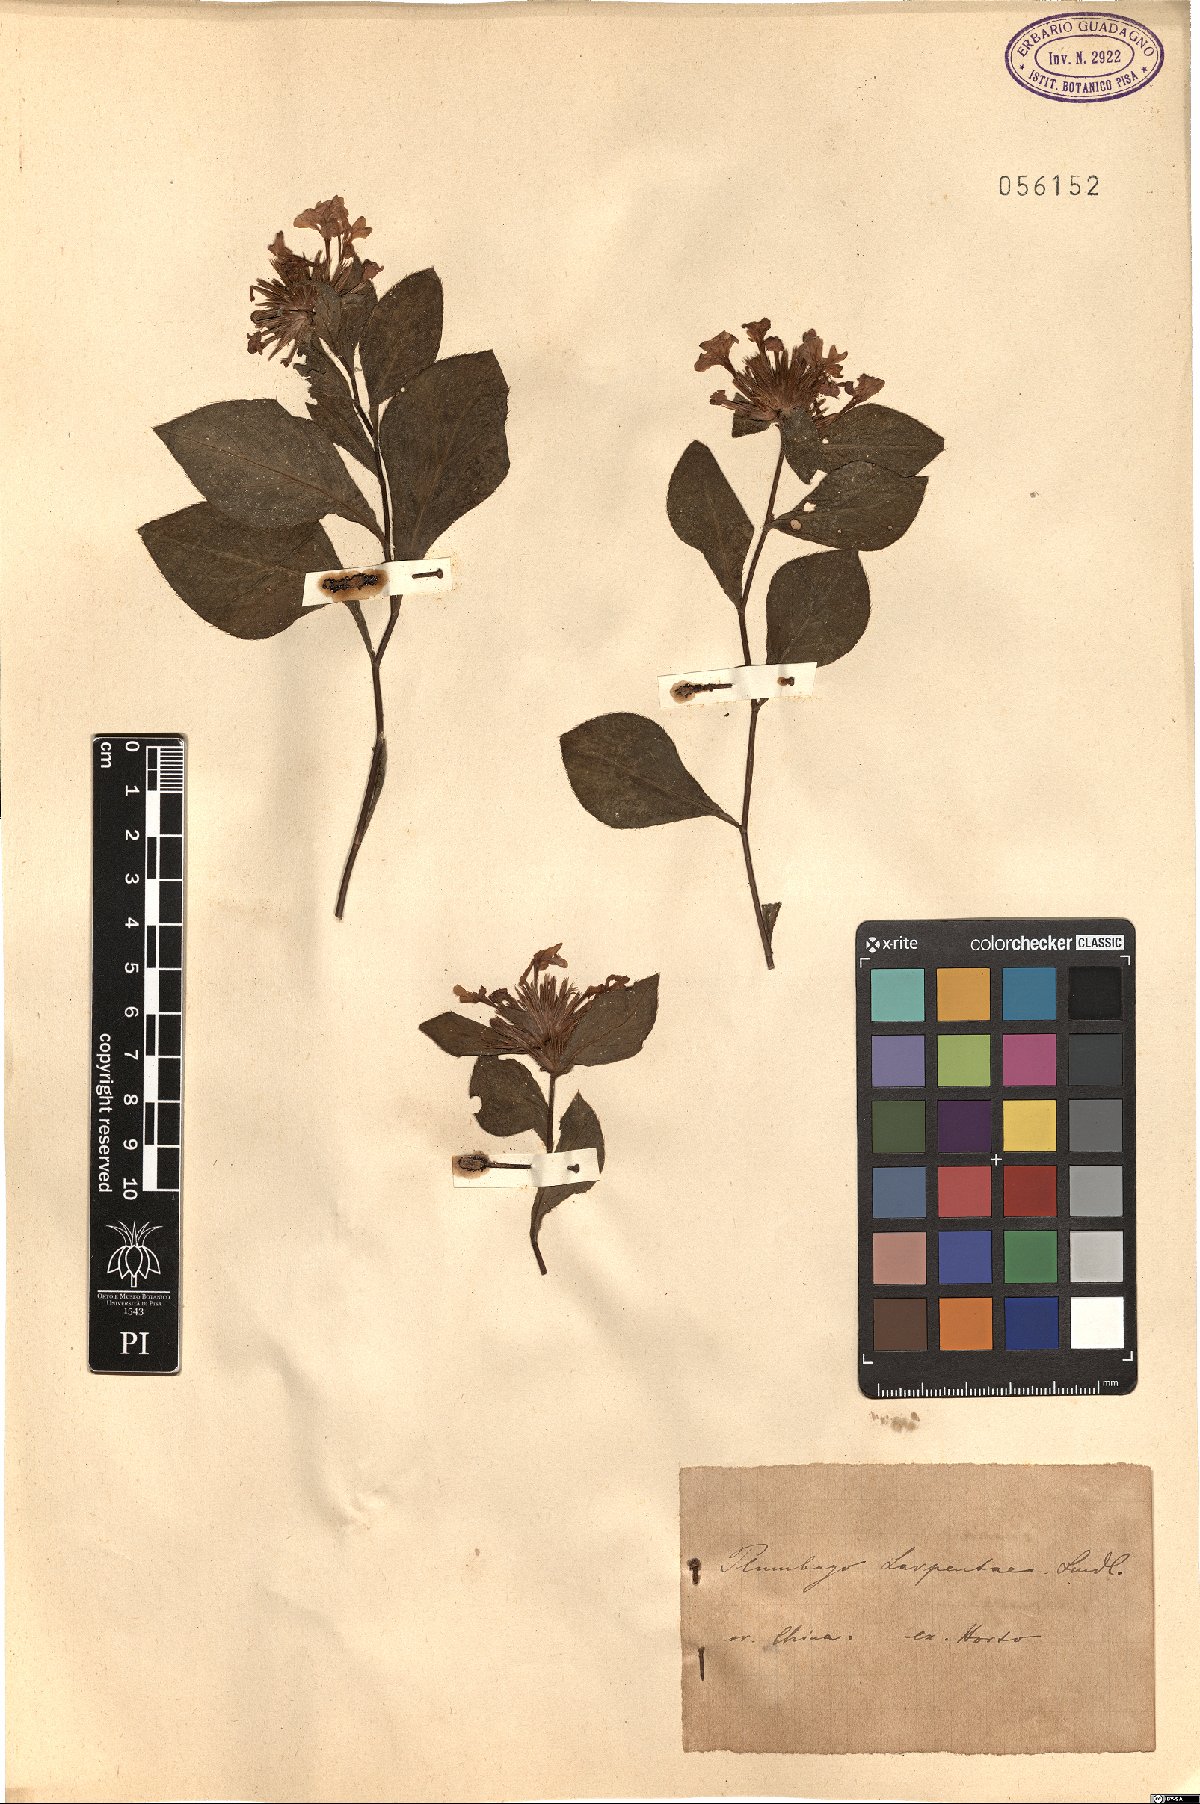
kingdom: Plantae
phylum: Tracheophyta
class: Magnoliopsida
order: Caryophyllales
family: Plumbaginaceae
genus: Ceratostigma
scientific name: Ceratostigma plumbaginoides
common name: Blue leadwood
